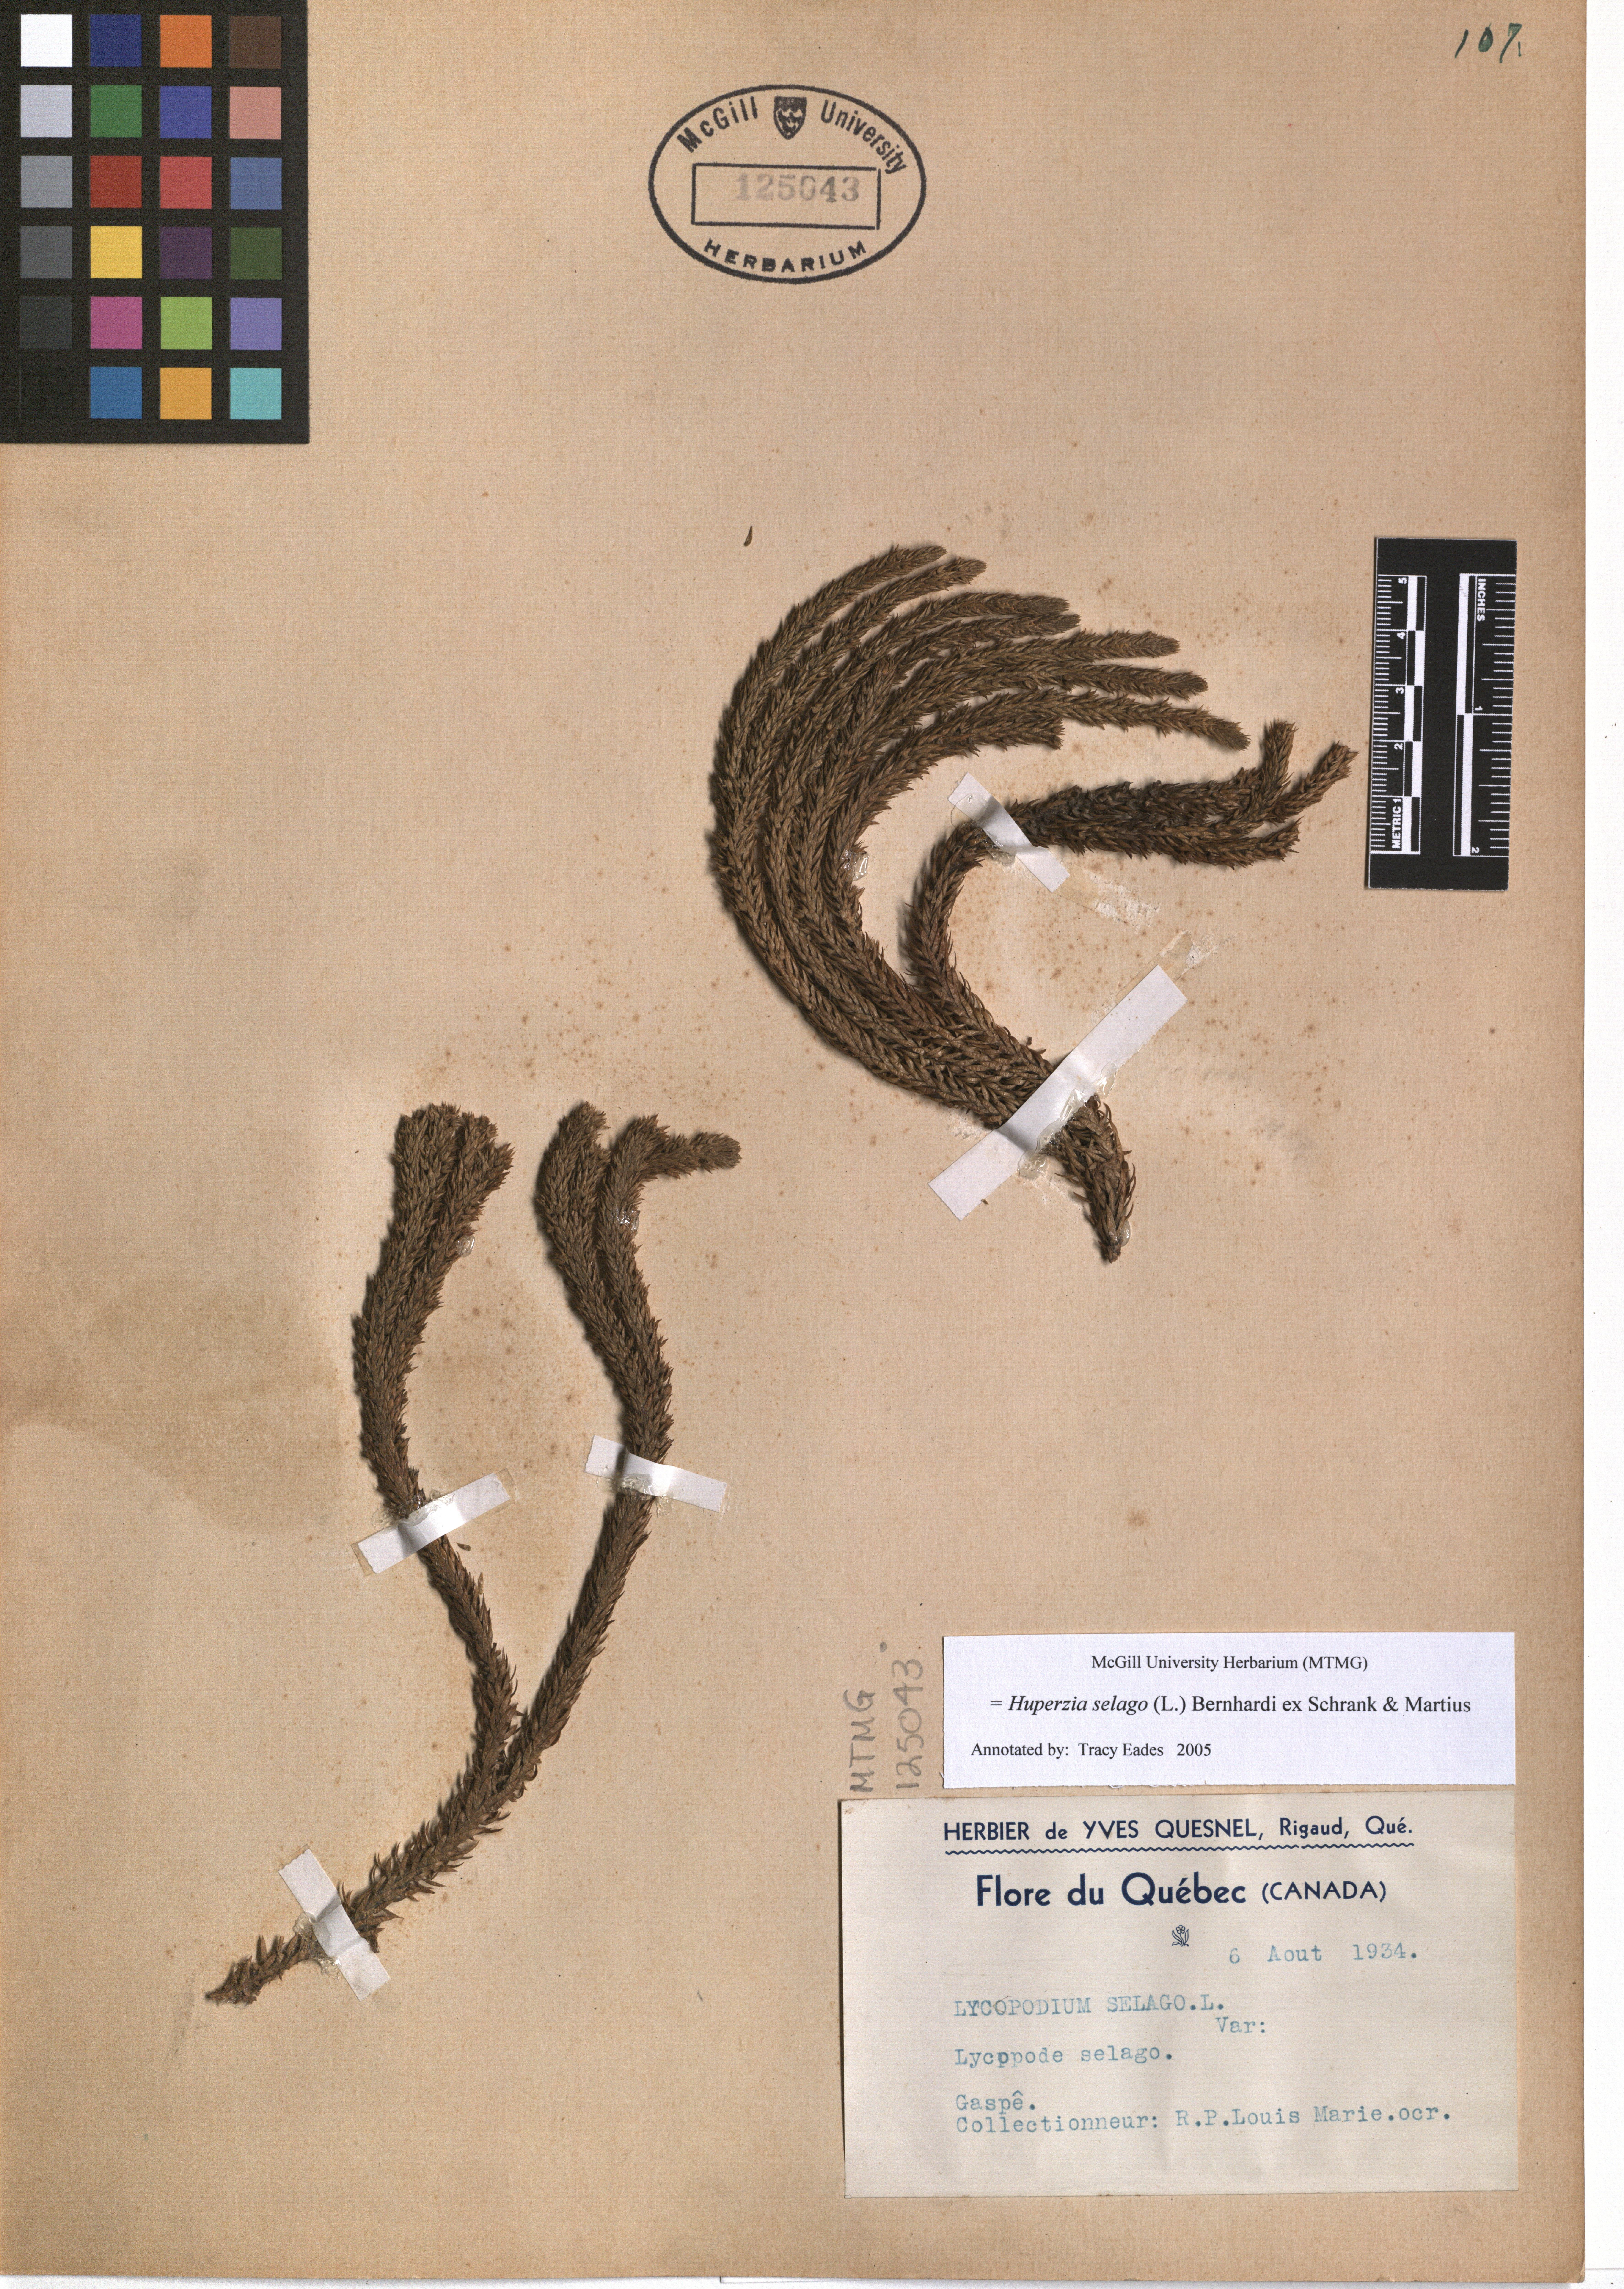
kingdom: Plantae
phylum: Tracheophyta
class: Lycopodiopsida
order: Lycopodiales
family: Lycopodiaceae
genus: Huperzia
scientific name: Huperzia selago
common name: Northern firmoss
